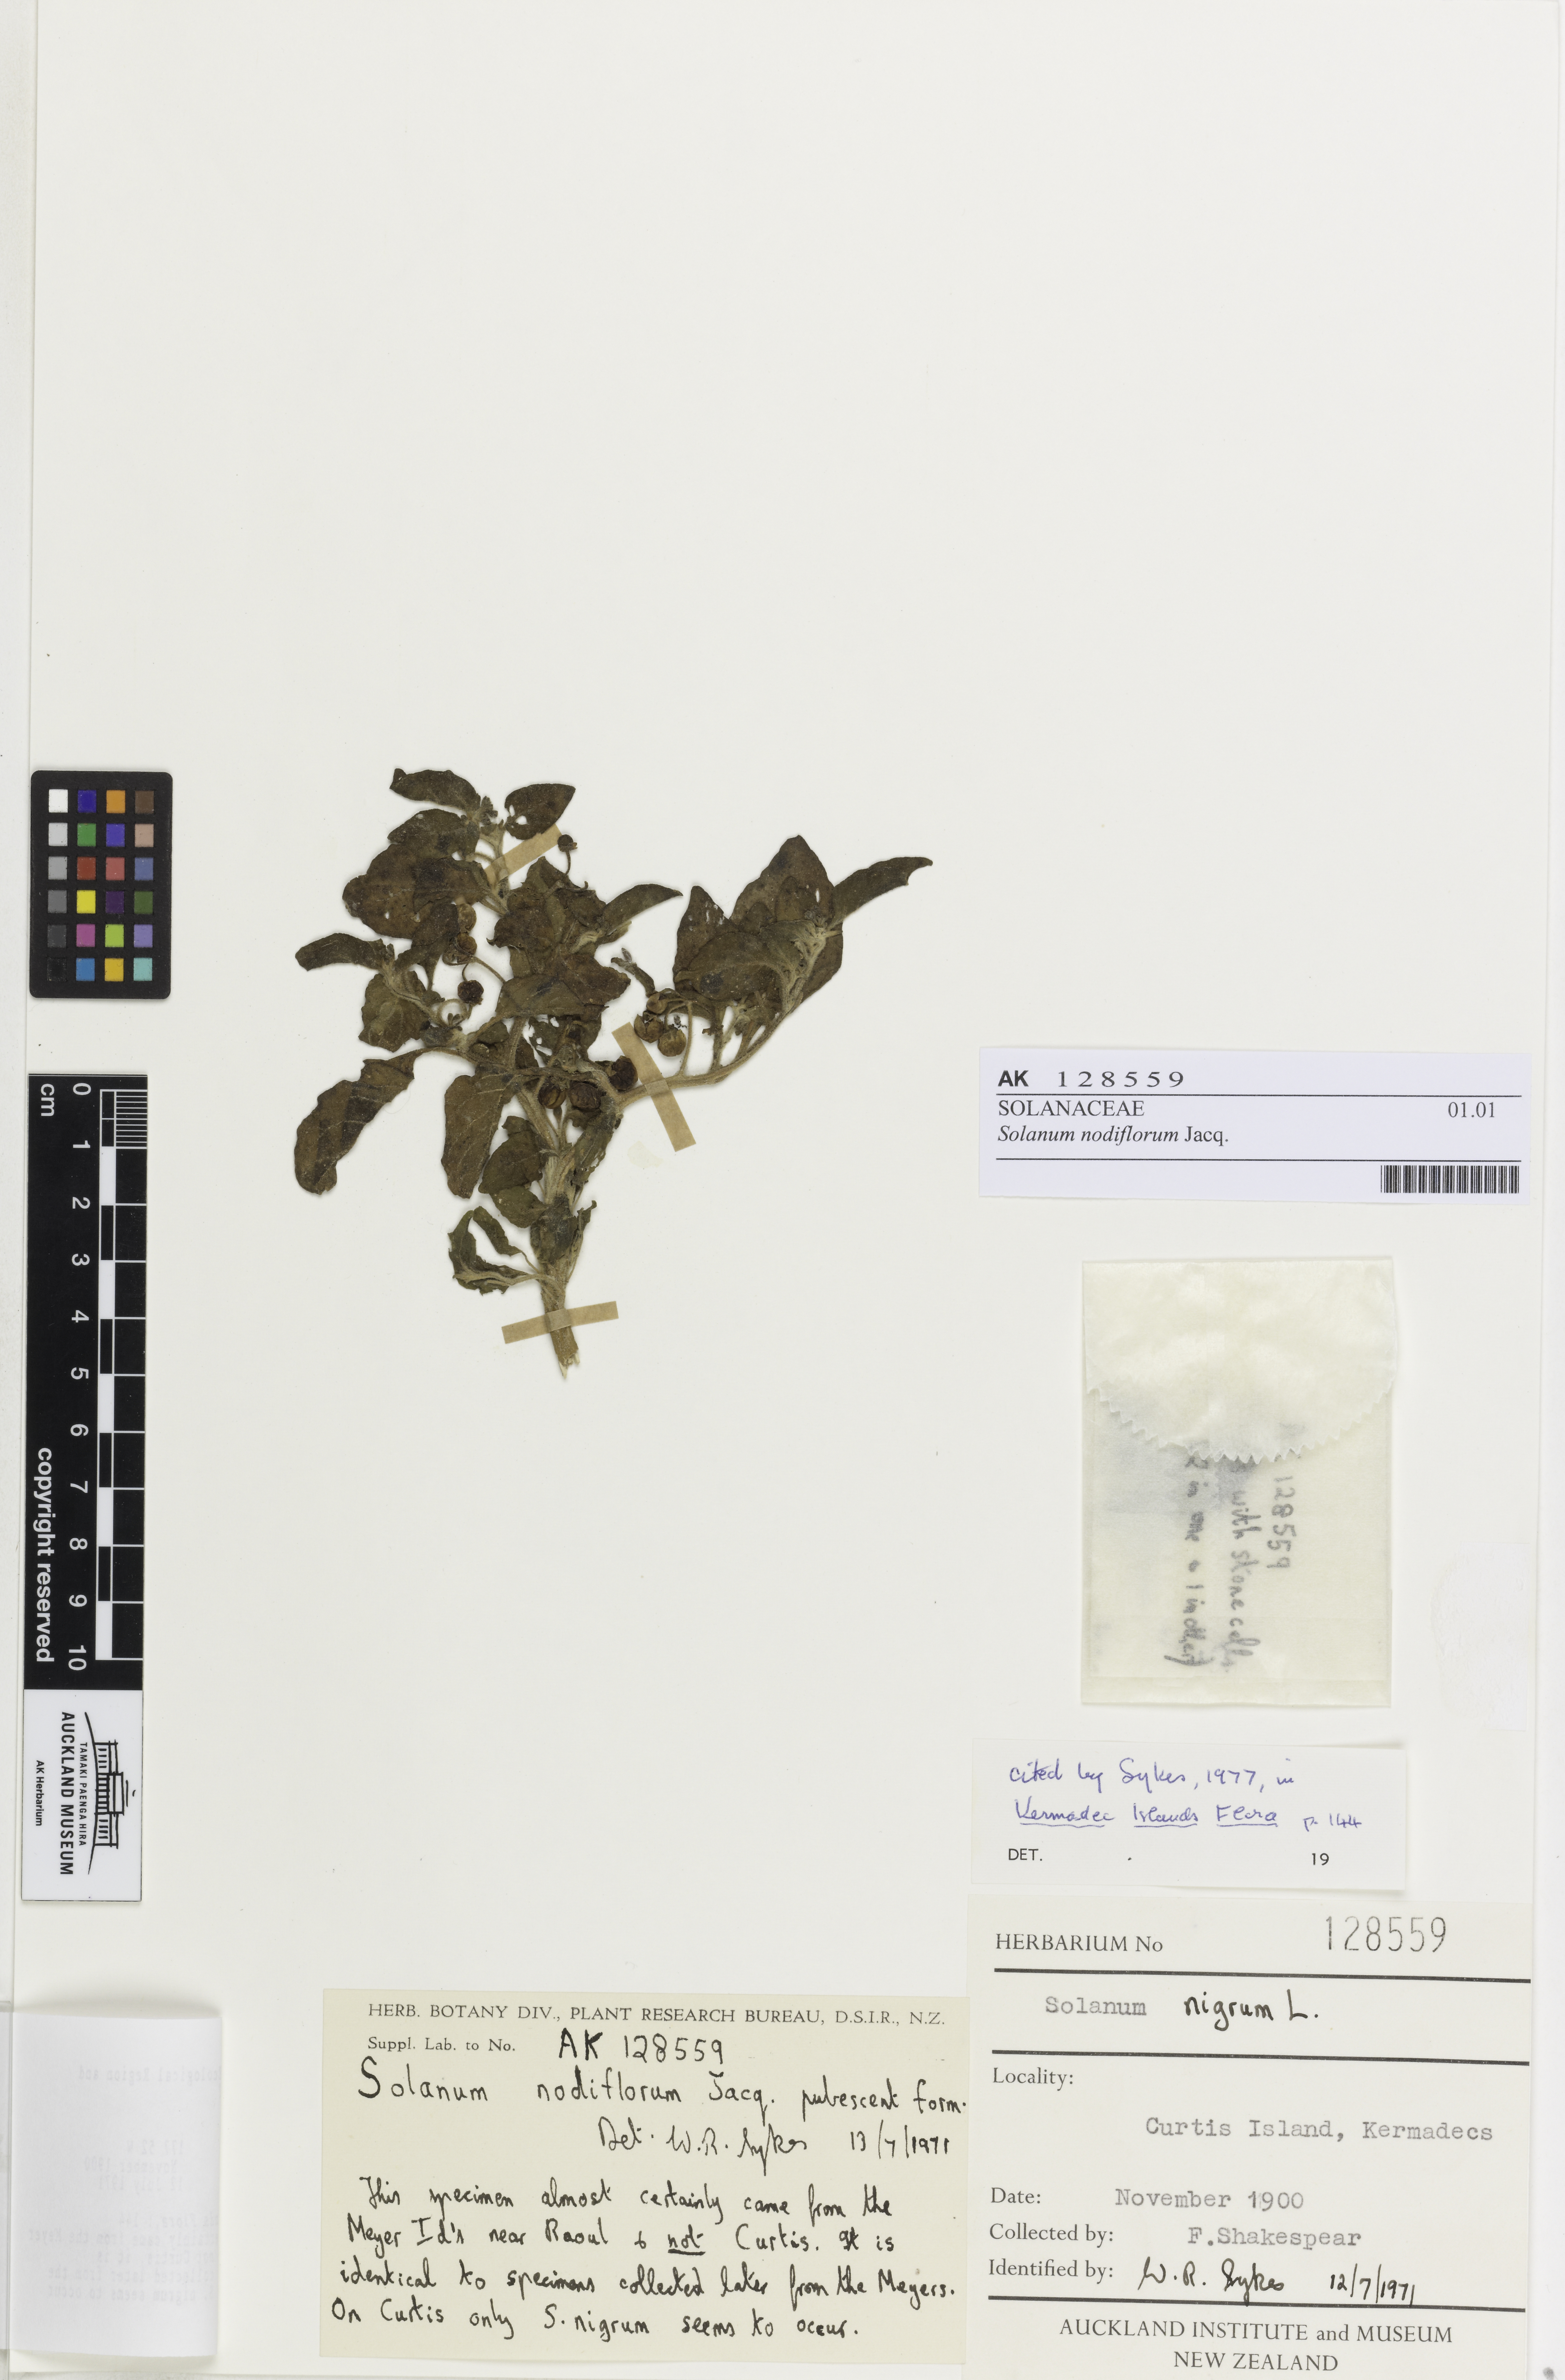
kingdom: Plantae
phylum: Tracheophyta
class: Magnoliopsida
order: Solanales
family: Solanaceae
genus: Solanum
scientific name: Solanum opacum
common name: Green-berry nightshade
